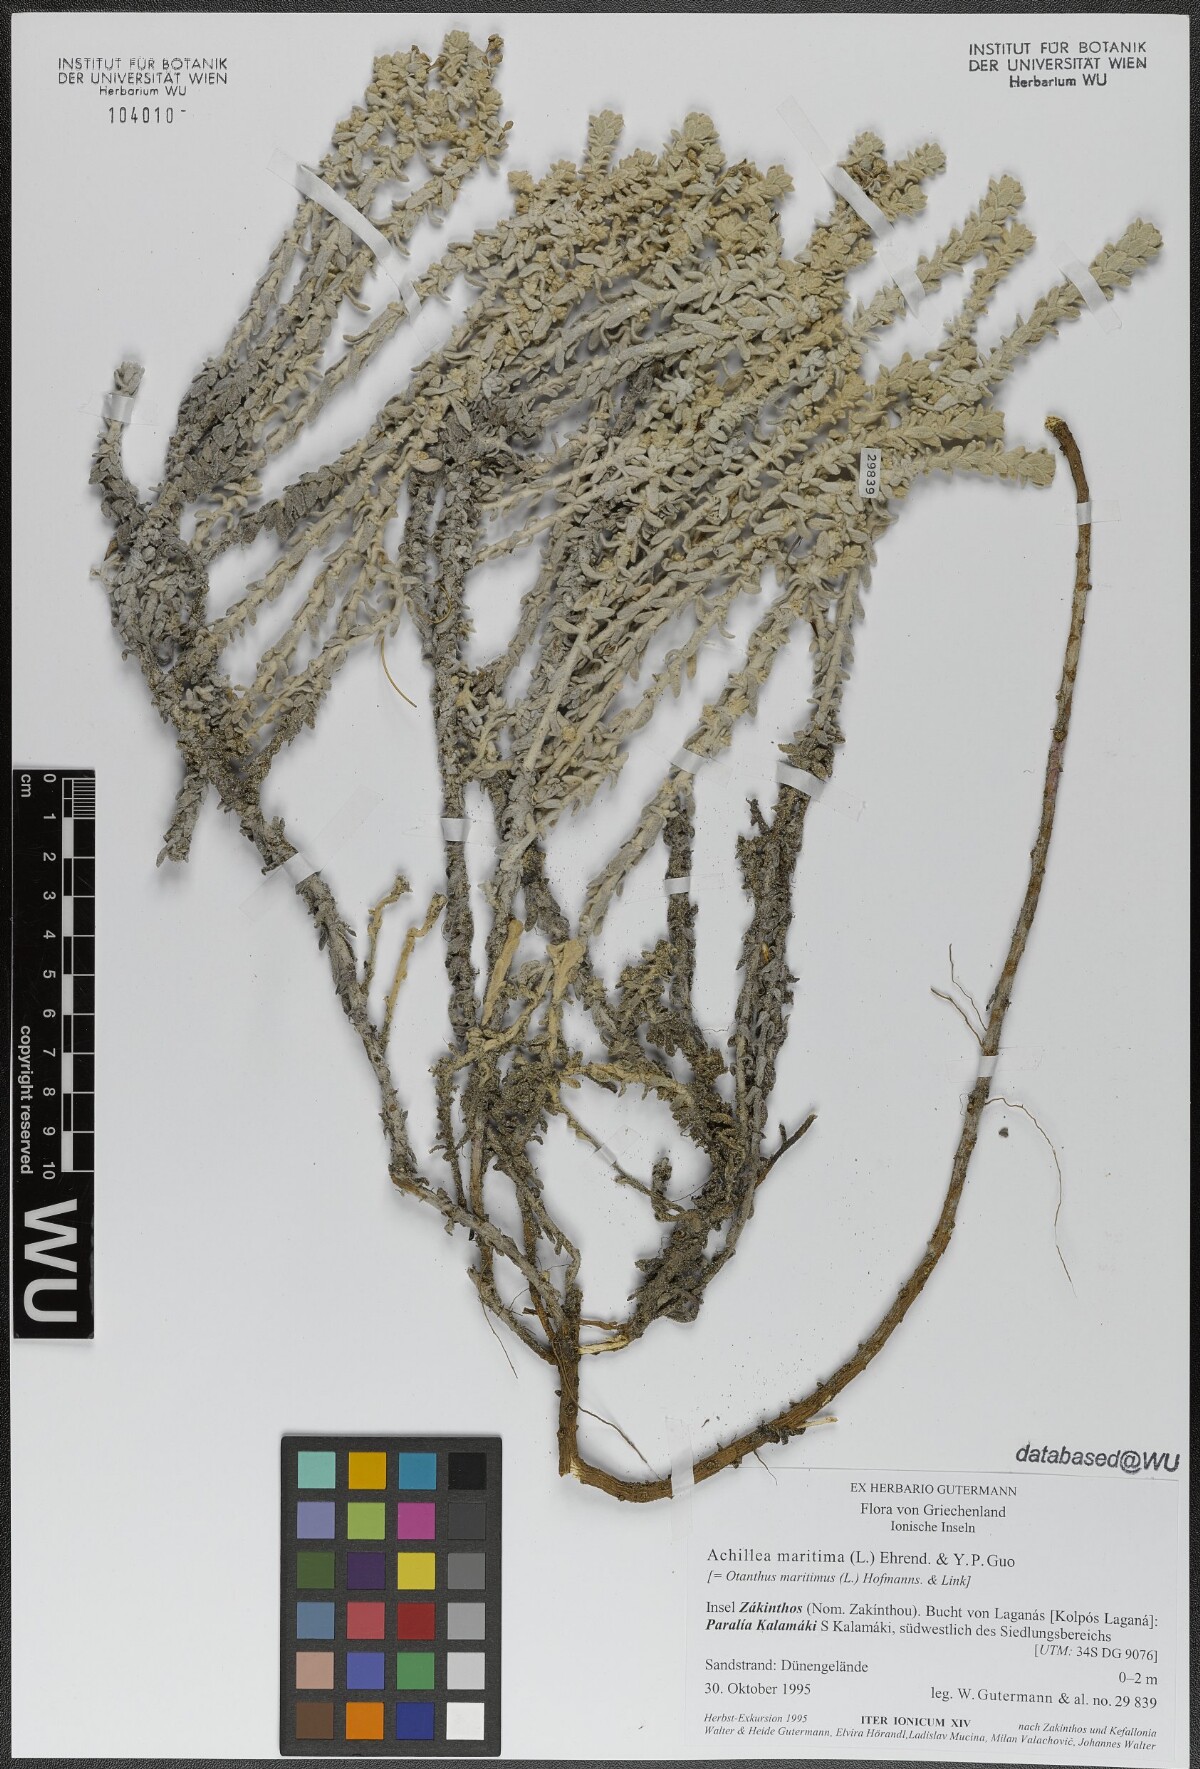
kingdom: Plantae
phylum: Tracheophyta
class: Magnoliopsida
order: Asterales
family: Asteraceae
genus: Achillea
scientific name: Achillea maritima
